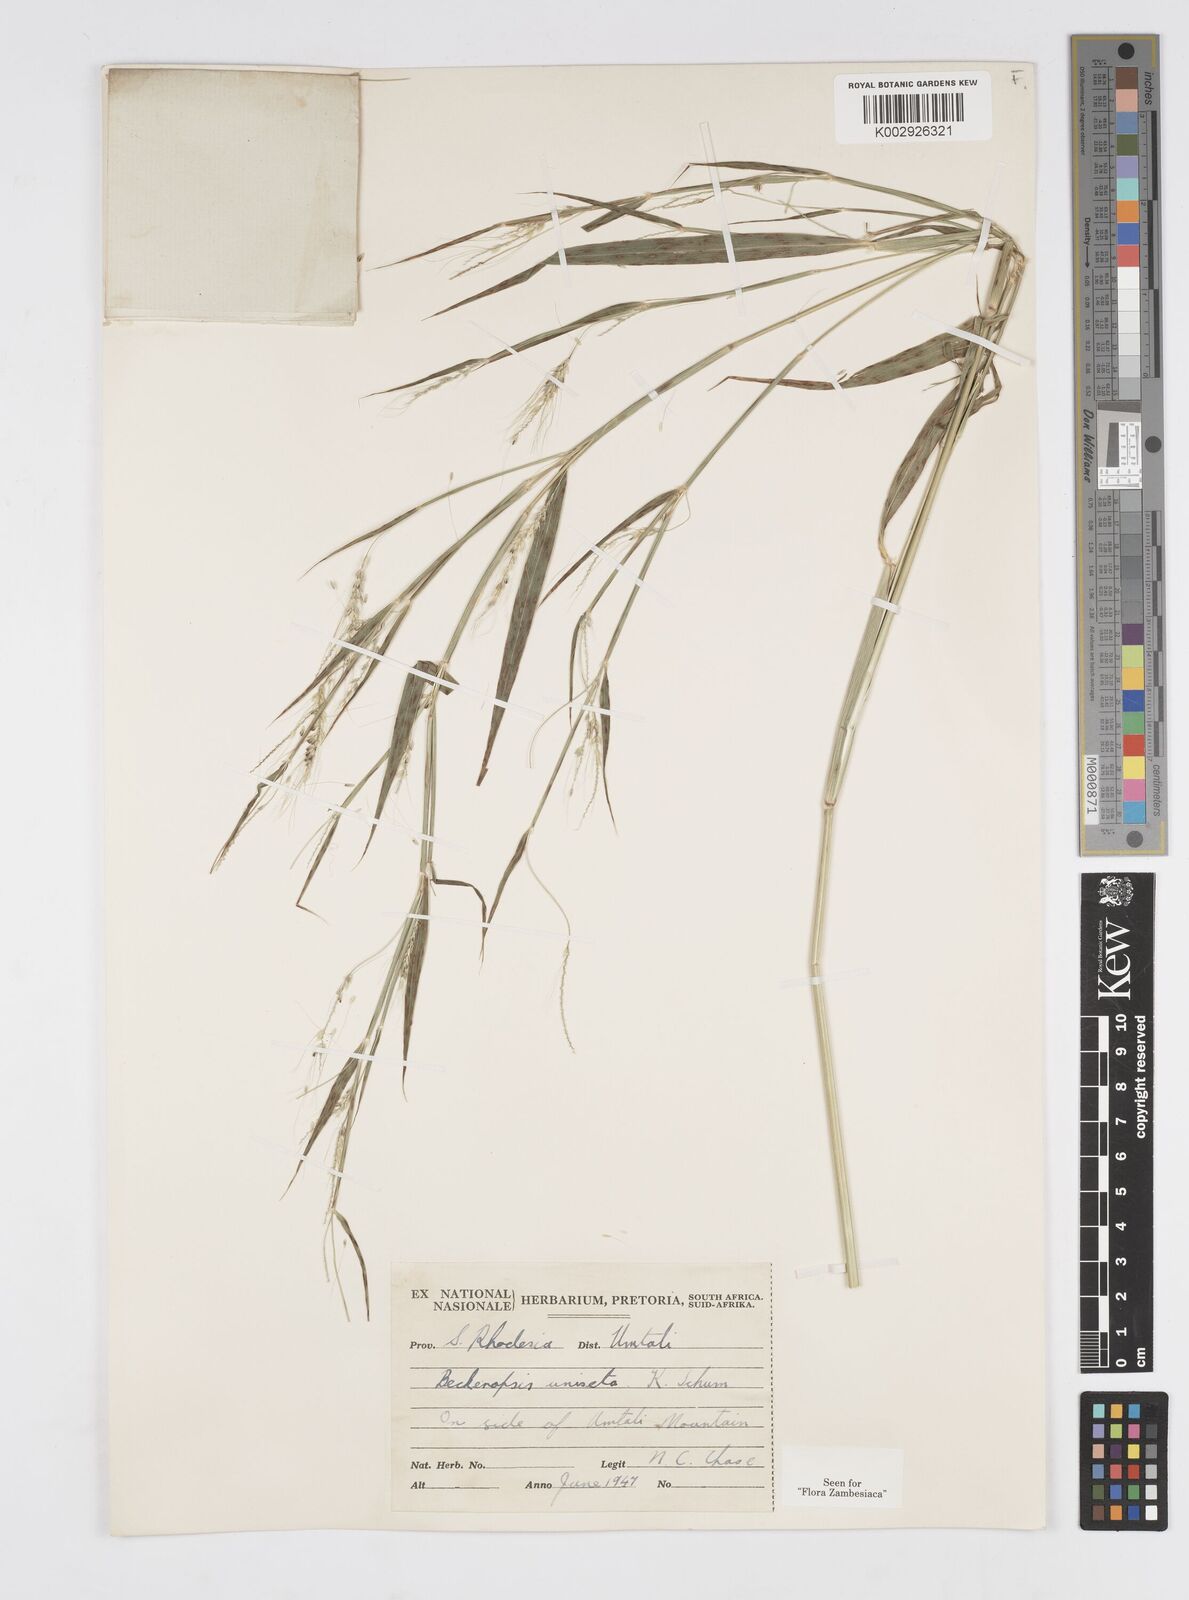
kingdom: Plantae
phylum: Tracheophyta
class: Liliopsida
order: Poales
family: Poaceae
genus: Cenchrus
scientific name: Cenchrus unisetus
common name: Natal grass
